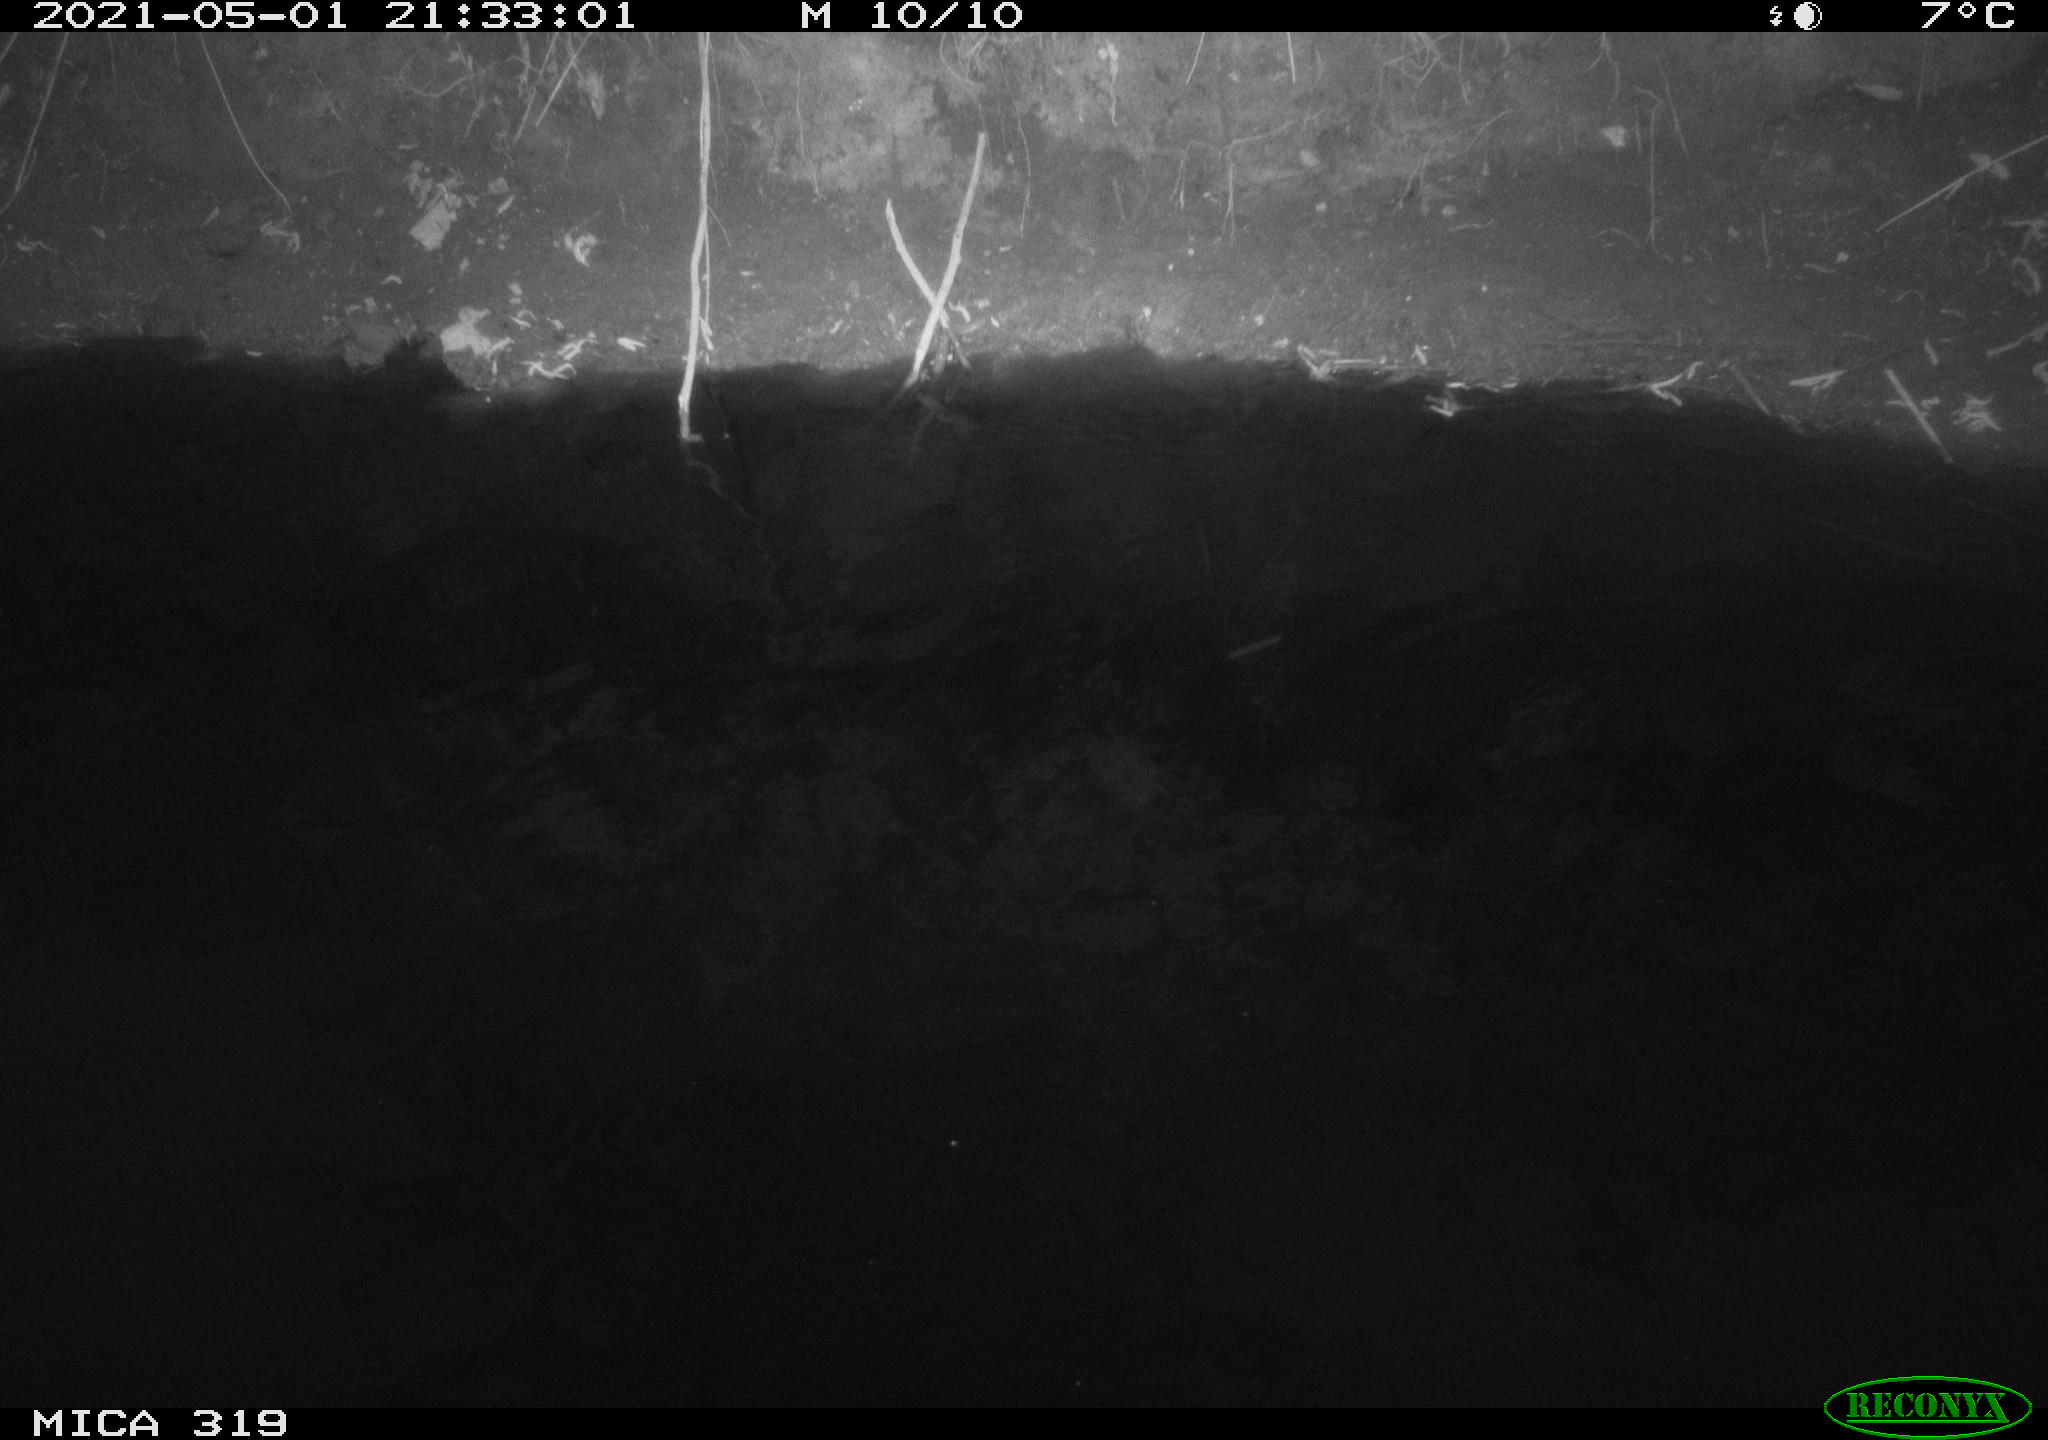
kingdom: Animalia
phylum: Chordata
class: Aves
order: Anseriformes
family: Anatidae
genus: Anas
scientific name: Anas platyrhynchos
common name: Mallard
